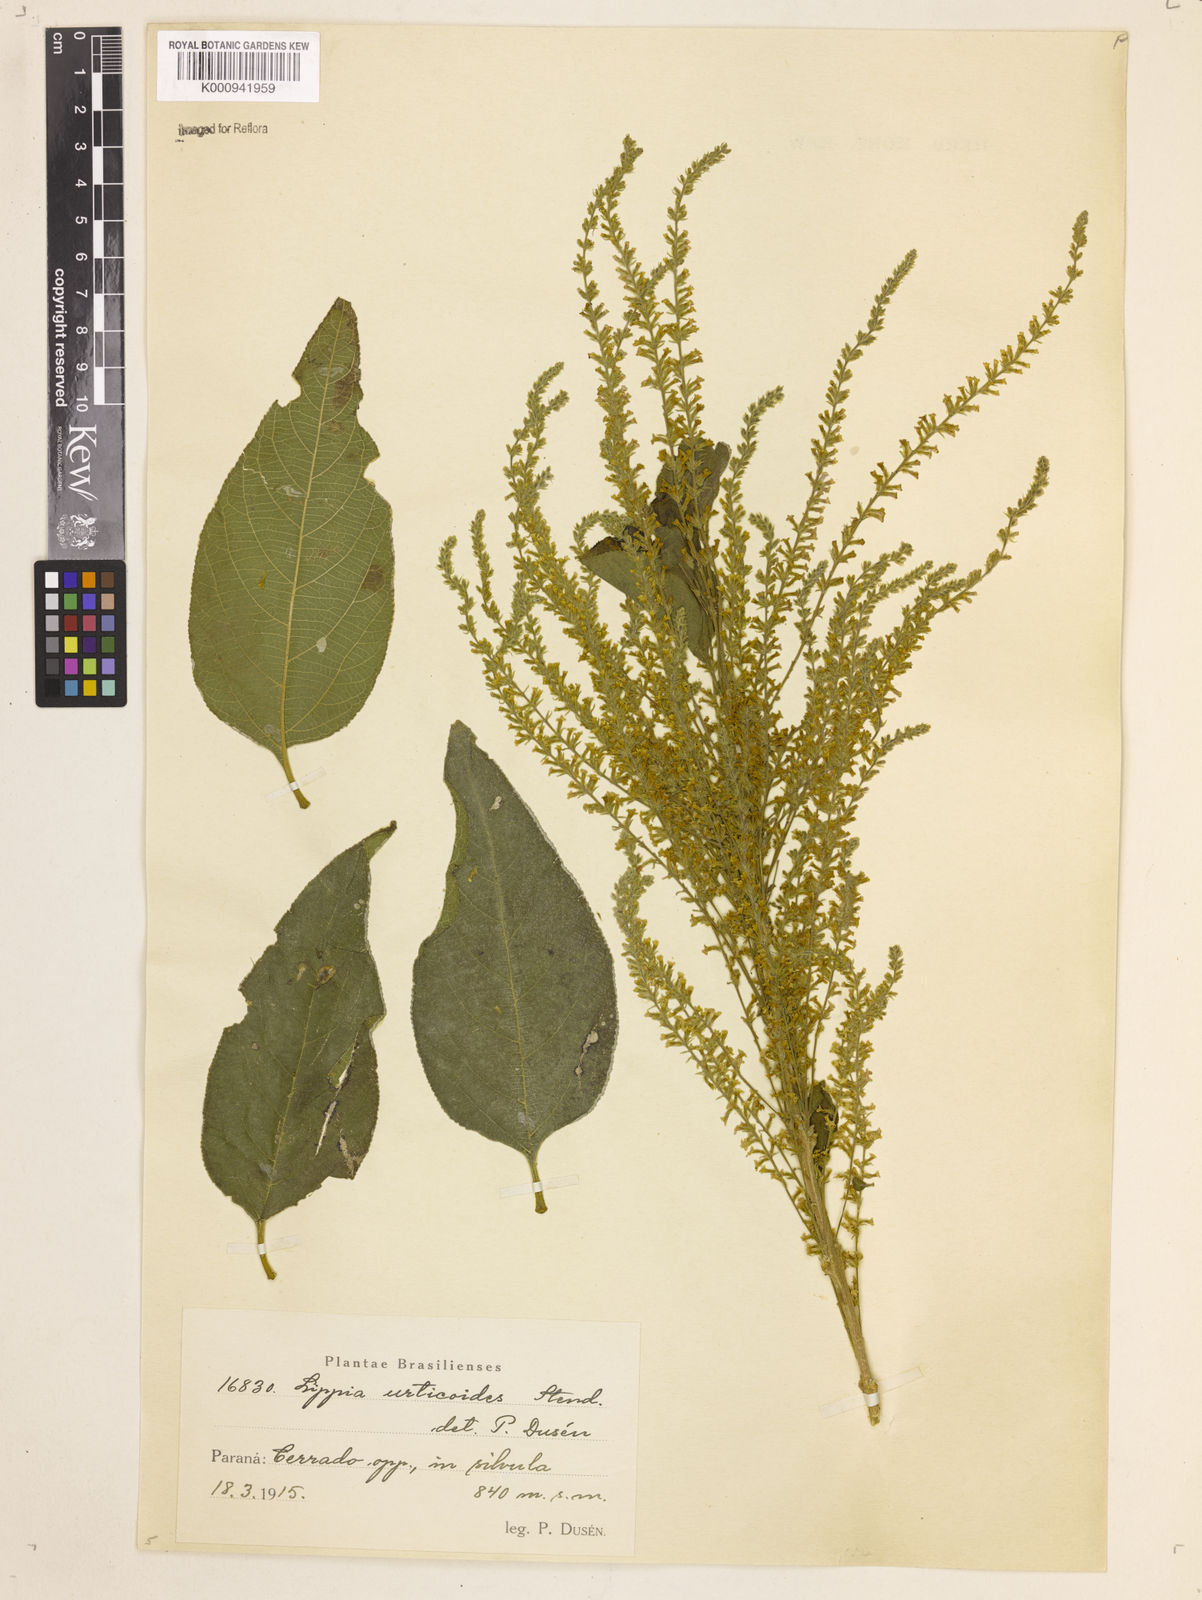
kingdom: Plantae
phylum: Tracheophyta
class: Magnoliopsida
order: Lamiales
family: Verbenaceae
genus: Aloysia
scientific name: Aloysia
